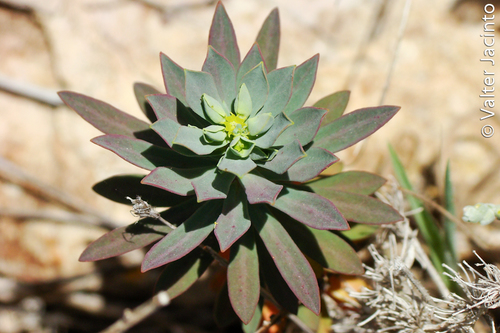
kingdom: Plantae
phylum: Tracheophyta
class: Magnoliopsida
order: Malpighiales
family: Euphorbiaceae
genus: Euphorbia
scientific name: Euphorbia portlandica
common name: Portland spurge
